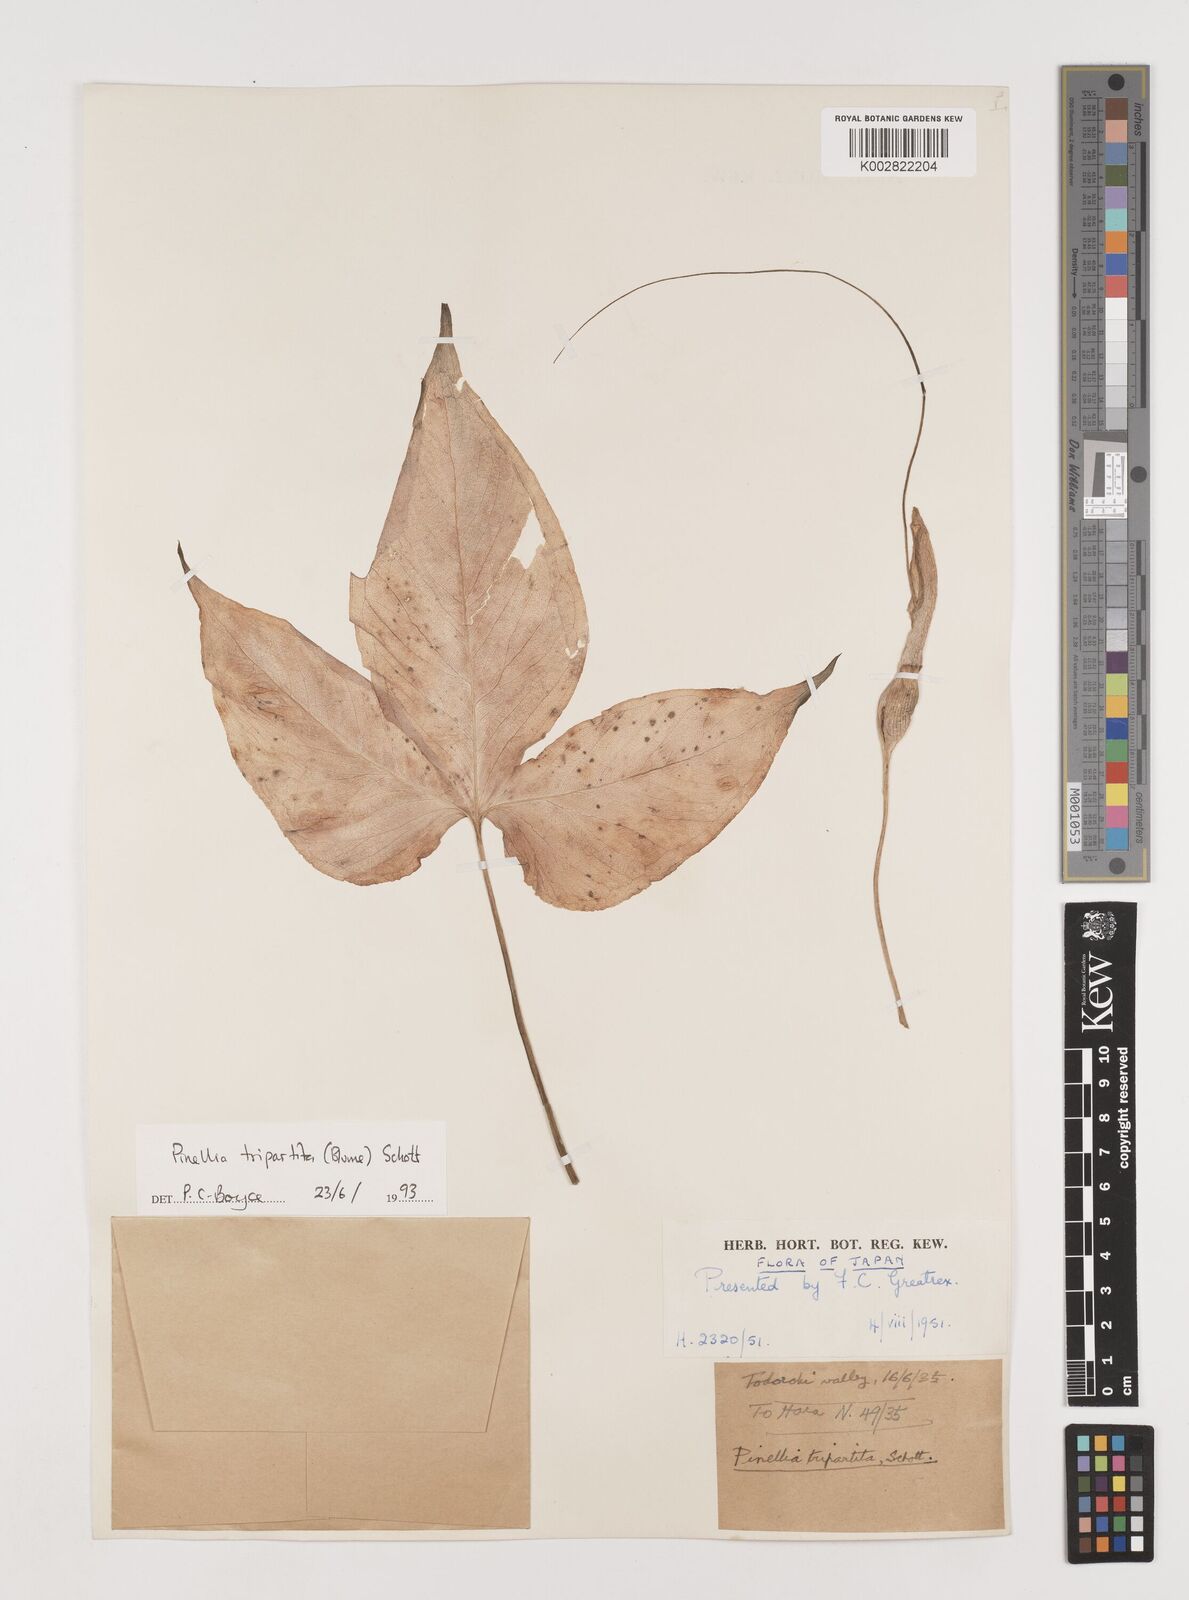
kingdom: Plantae
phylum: Tracheophyta
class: Liliopsida
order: Alismatales
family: Araceae
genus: Pinellia
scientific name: Pinellia tripartita
